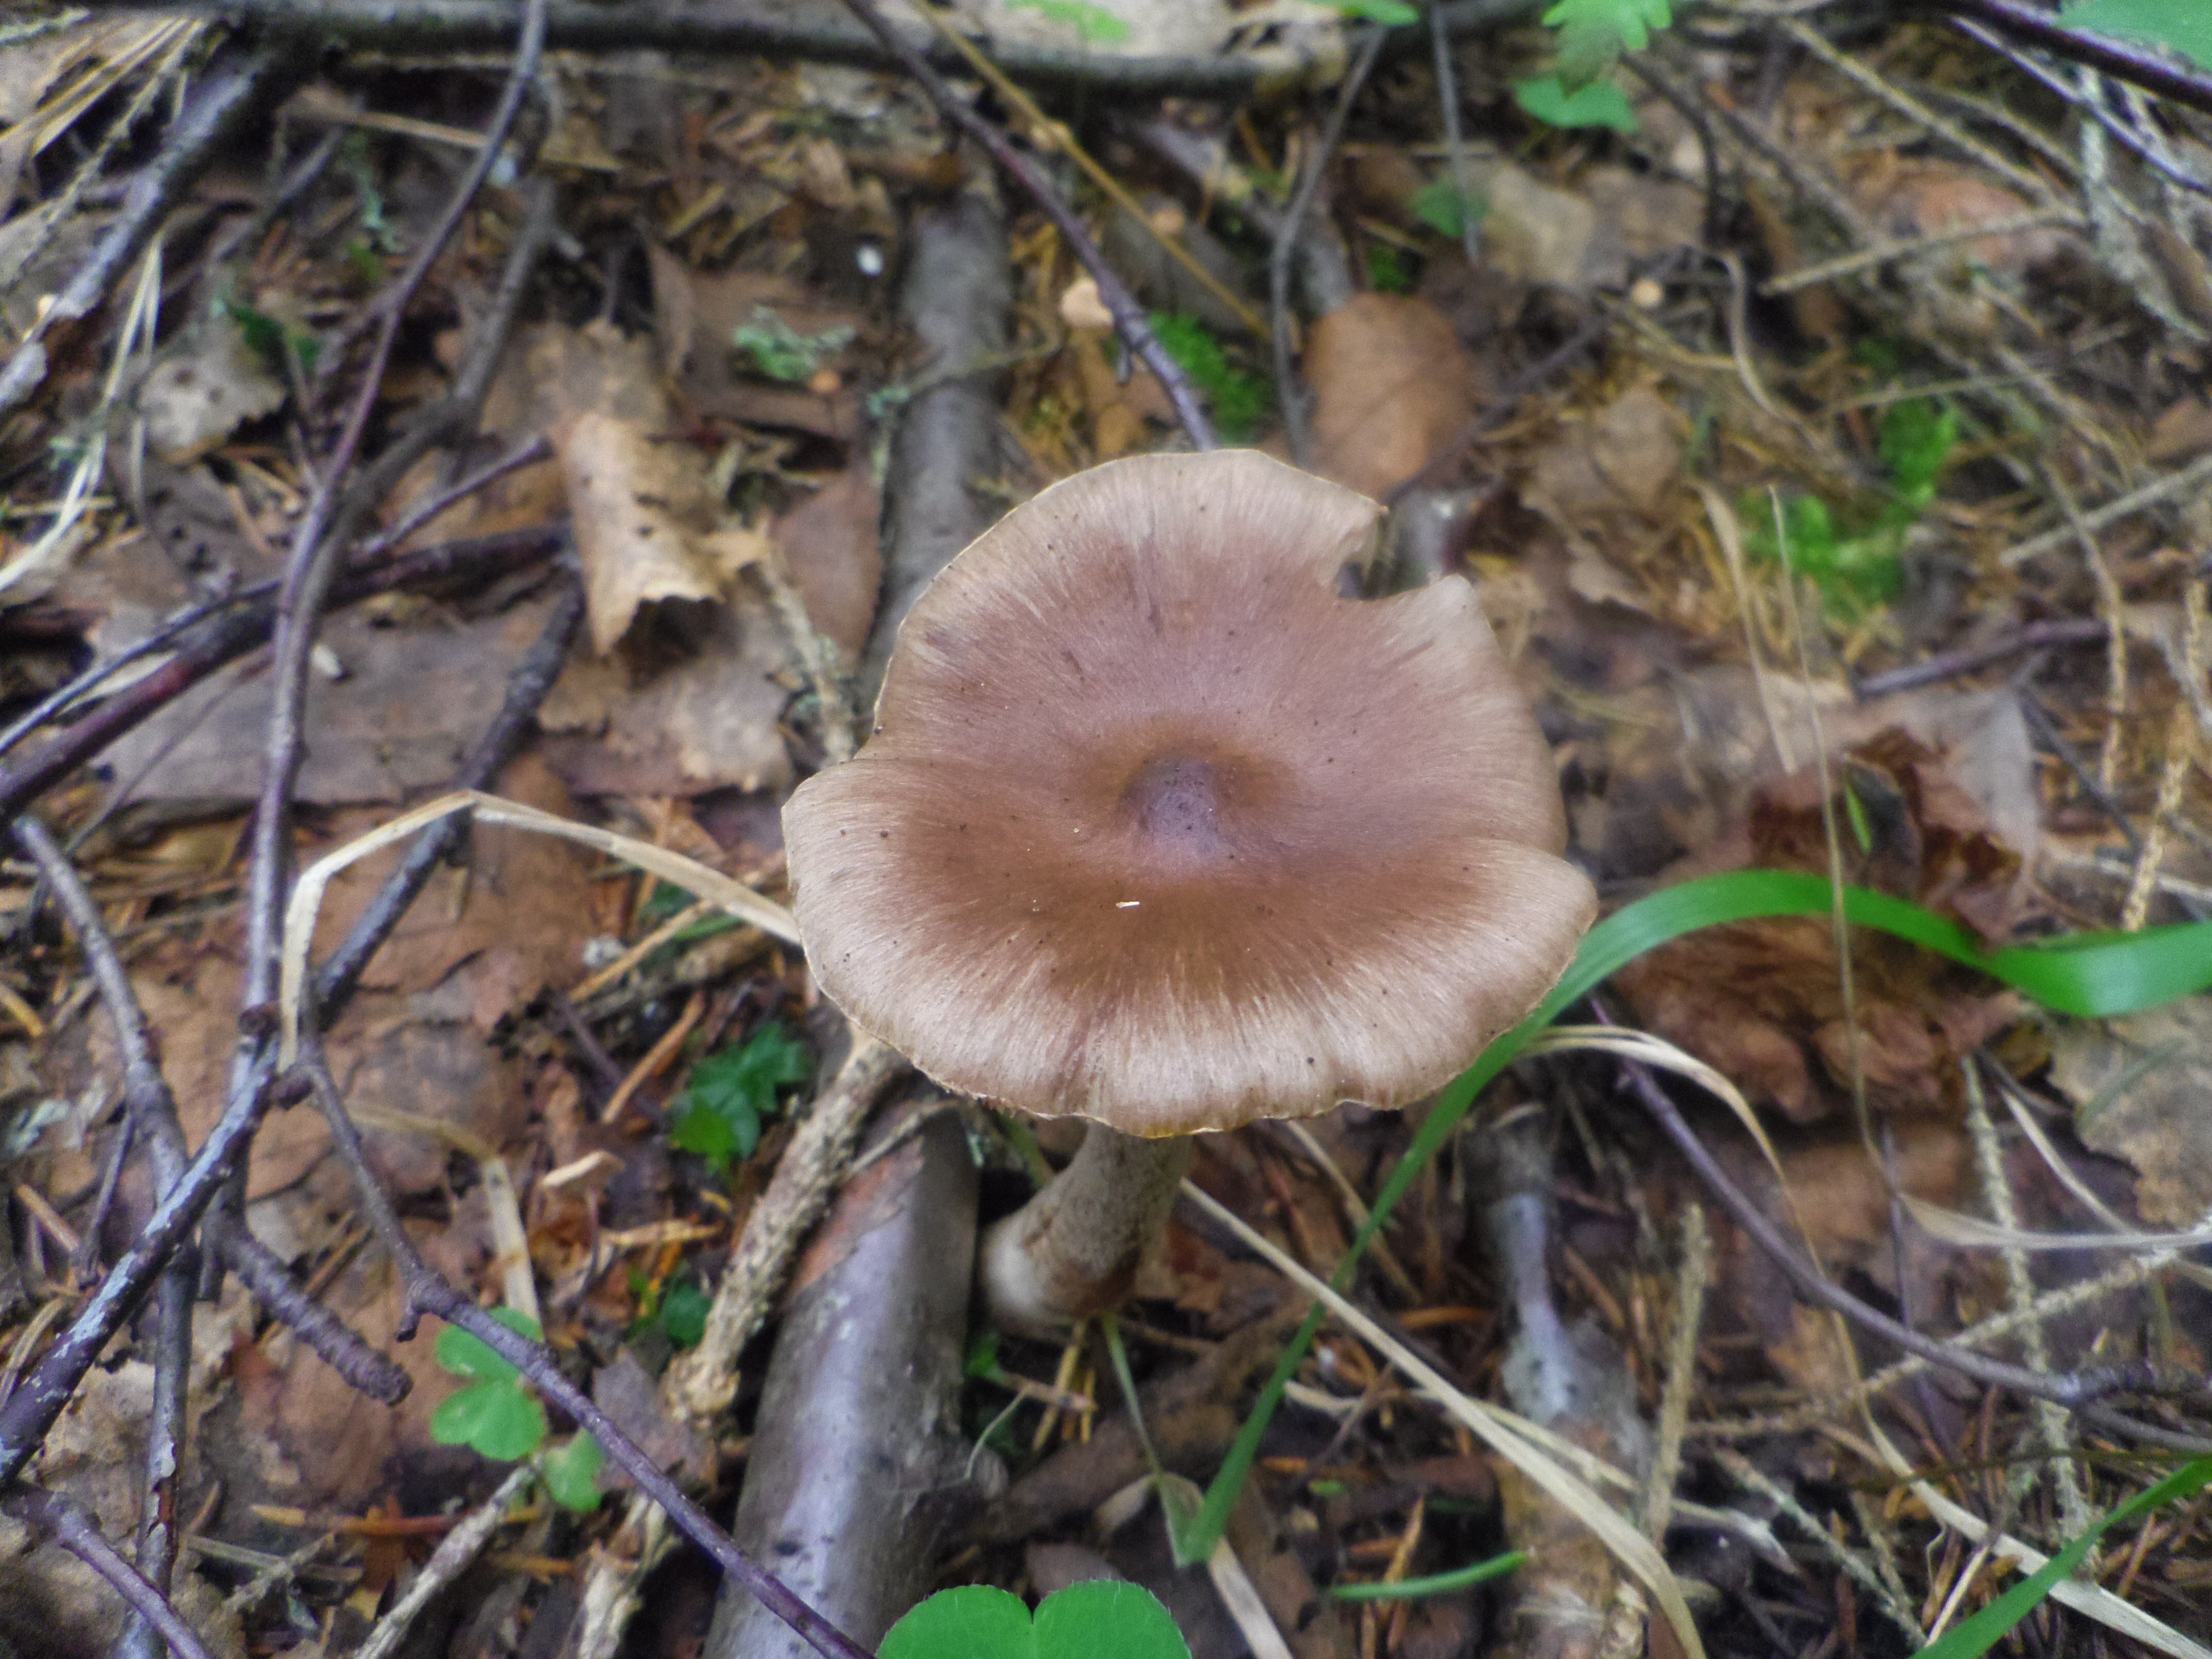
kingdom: Fungi
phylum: Basidiomycota
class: Agaricomycetes
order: Agaricales
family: Inocybaceae
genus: Inocybe
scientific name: Inocybe proximella
